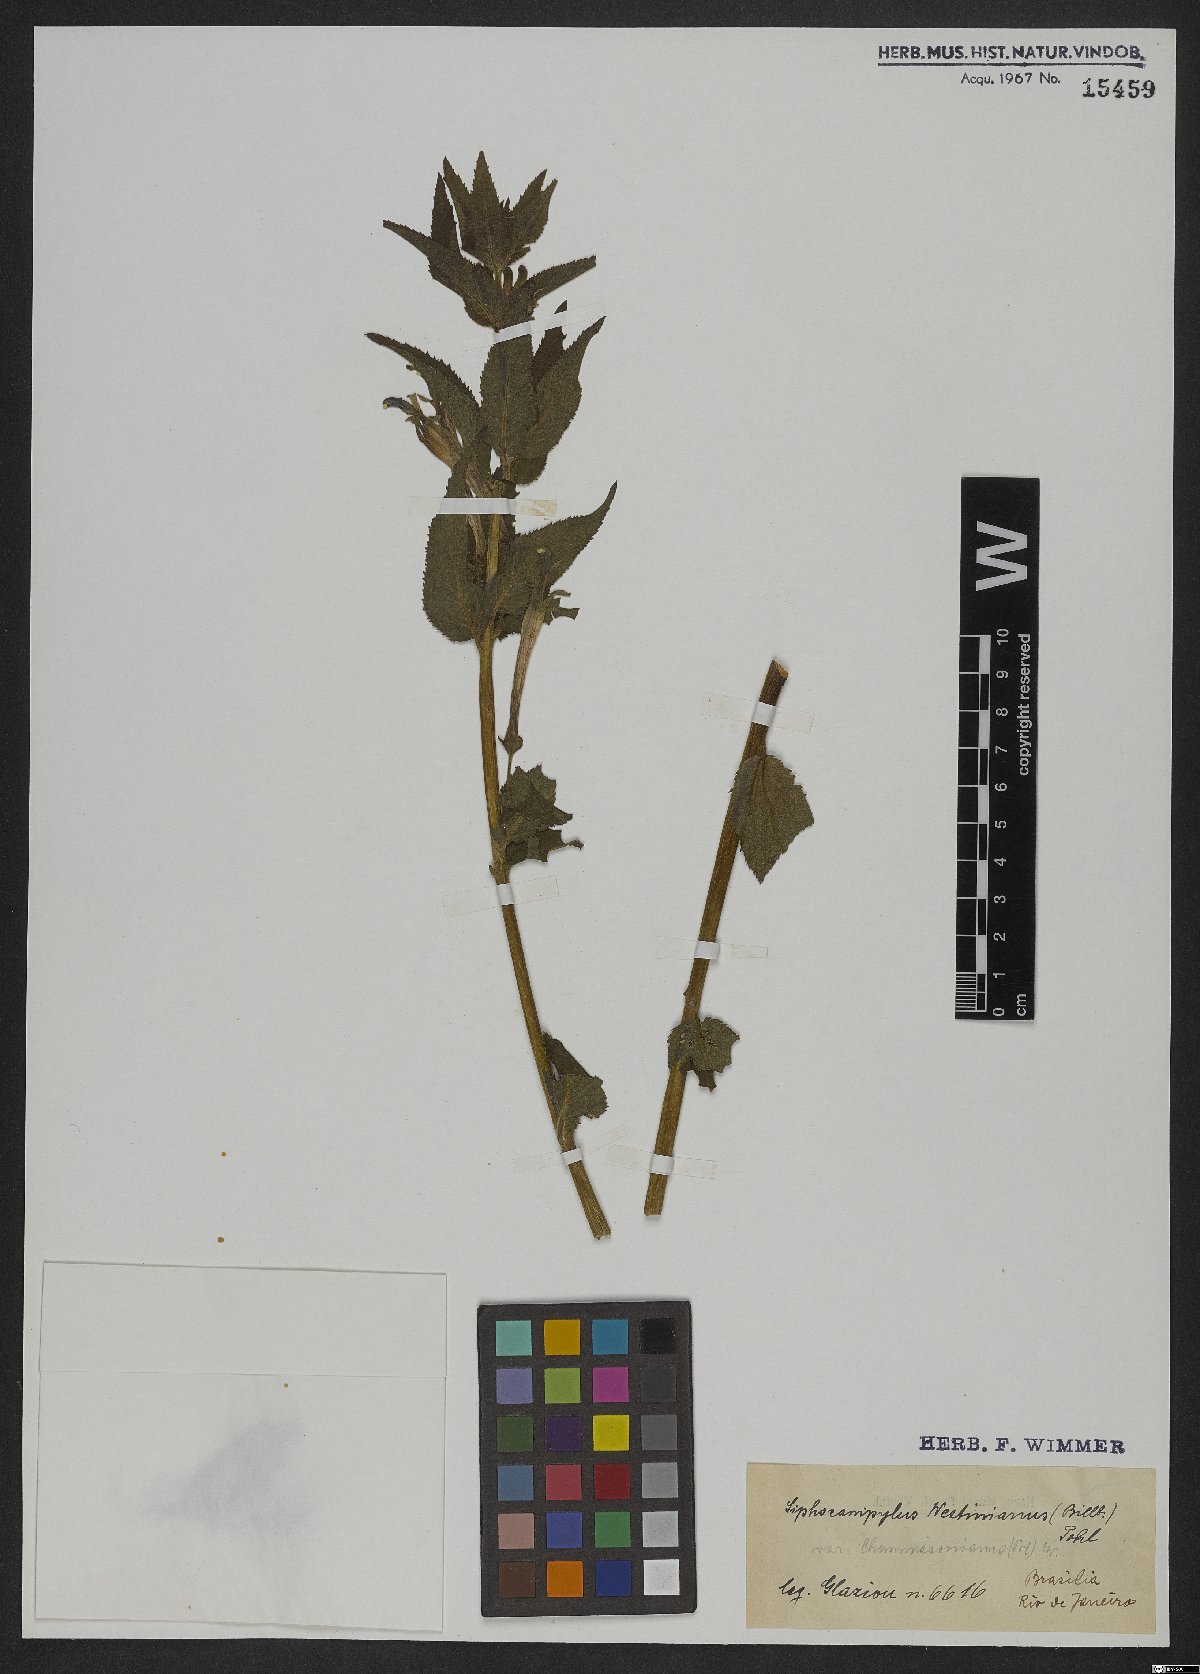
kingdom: Plantae
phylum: Tracheophyta
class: Magnoliopsida
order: Asterales
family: Campanulaceae
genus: Siphocampylus
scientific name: Siphocampylus westinianus
